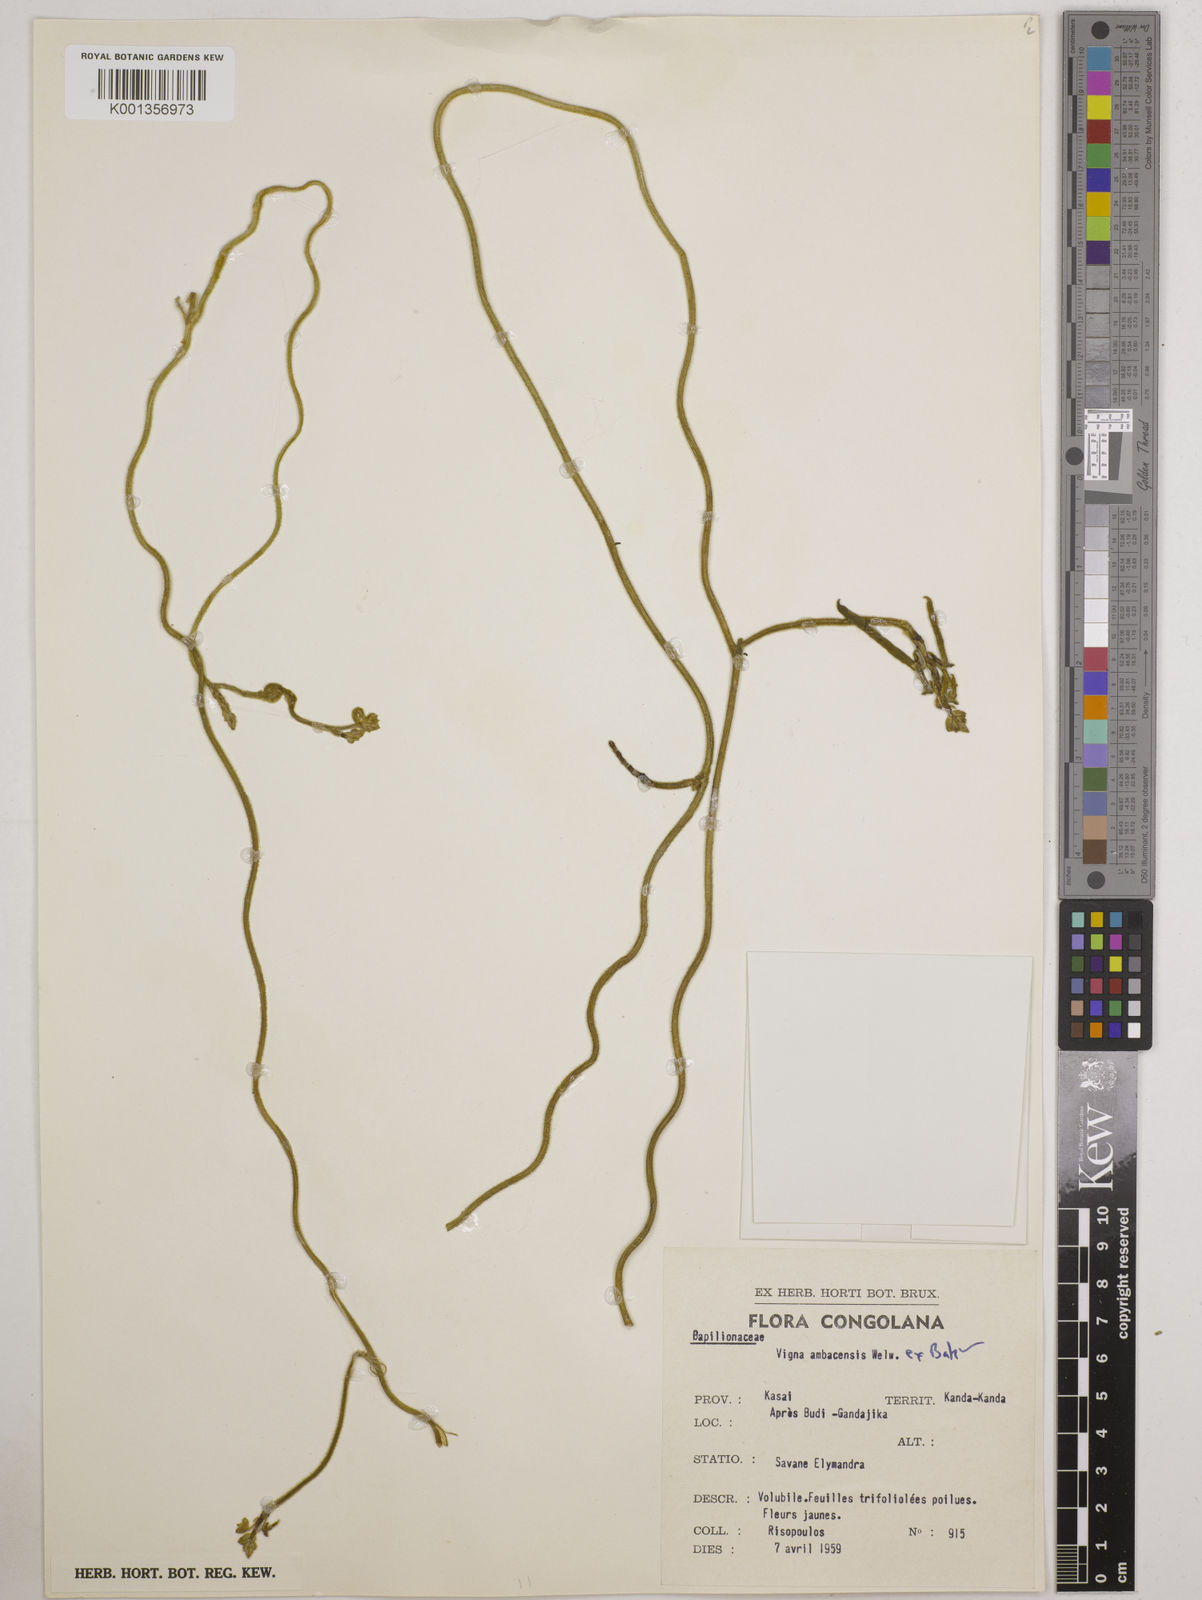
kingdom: Plantae
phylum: Tracheophyta
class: Magnoliopsida
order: Fabales
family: Fabaceae
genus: Vigna
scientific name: Vigna ambacensis
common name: Tsarkiyan zomo
